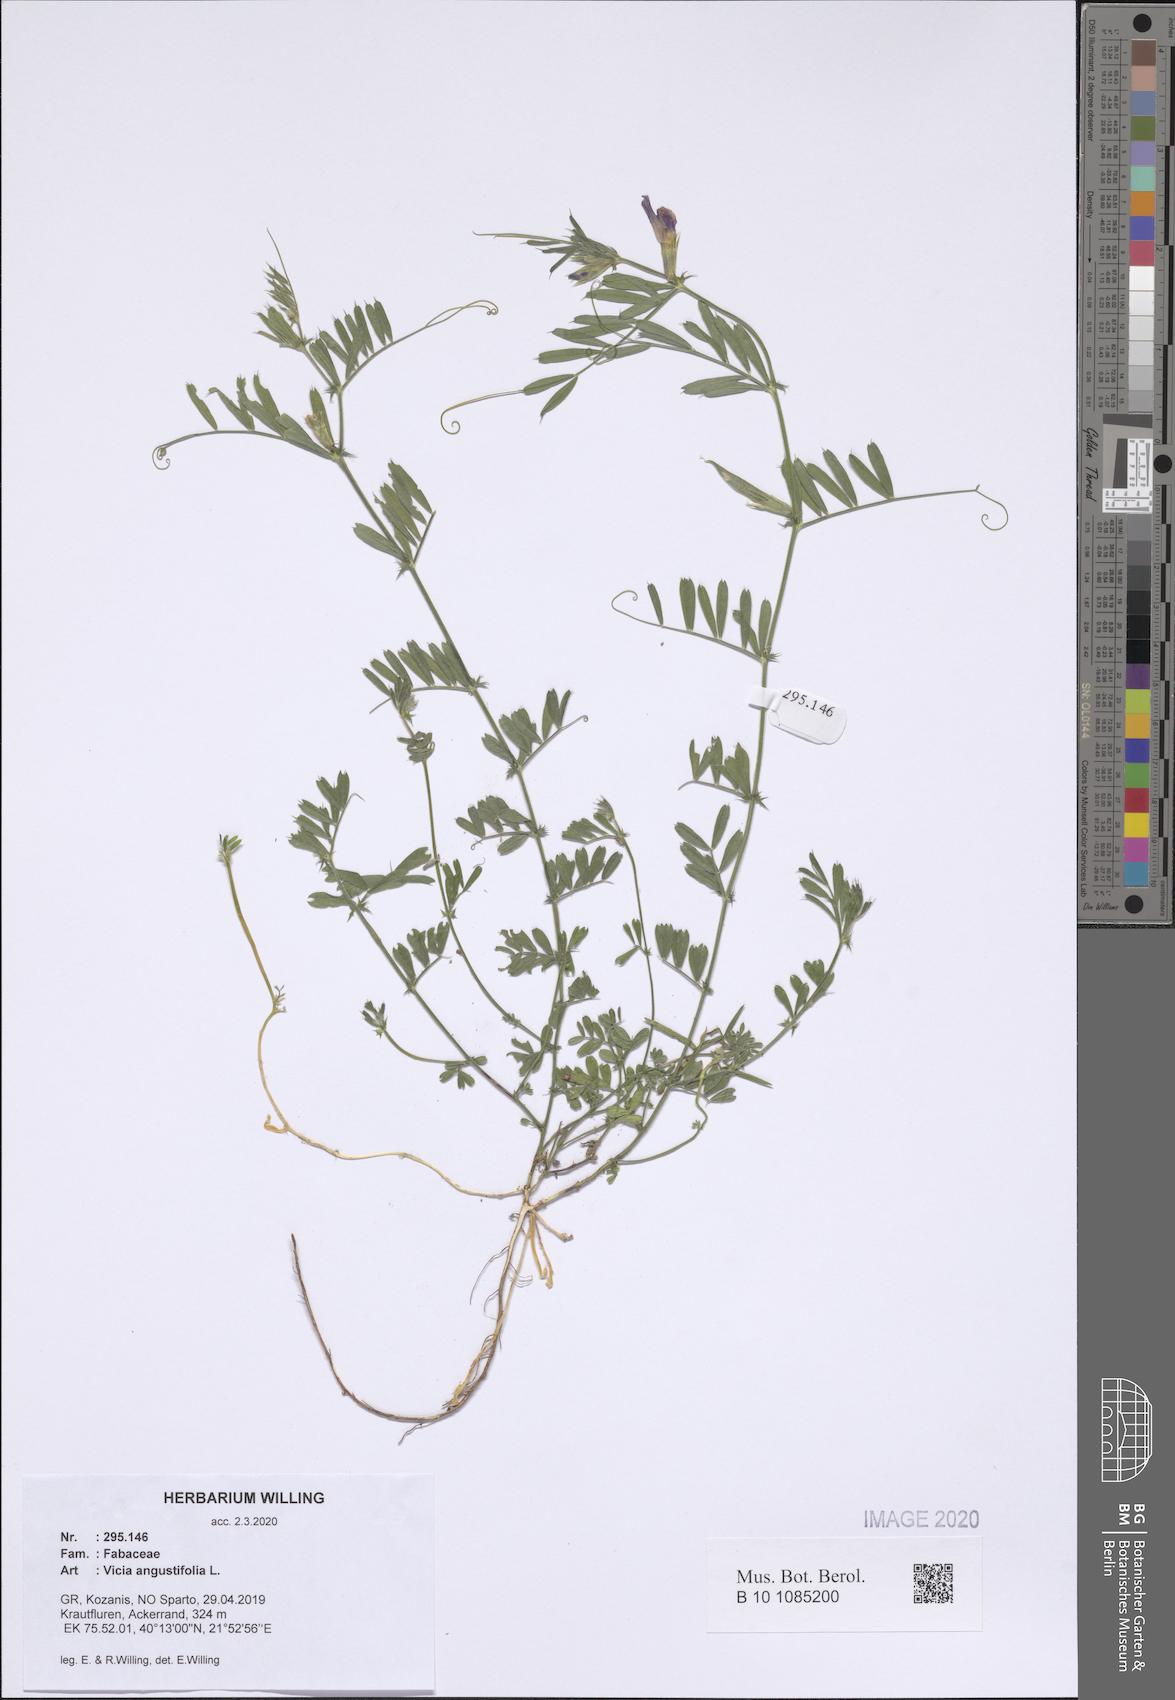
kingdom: Plantae
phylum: Tracheophyta
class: Magnoliopsida
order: Fabales
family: Fabaceae
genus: Vicia
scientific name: Vicia sativa
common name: Garden vetch
